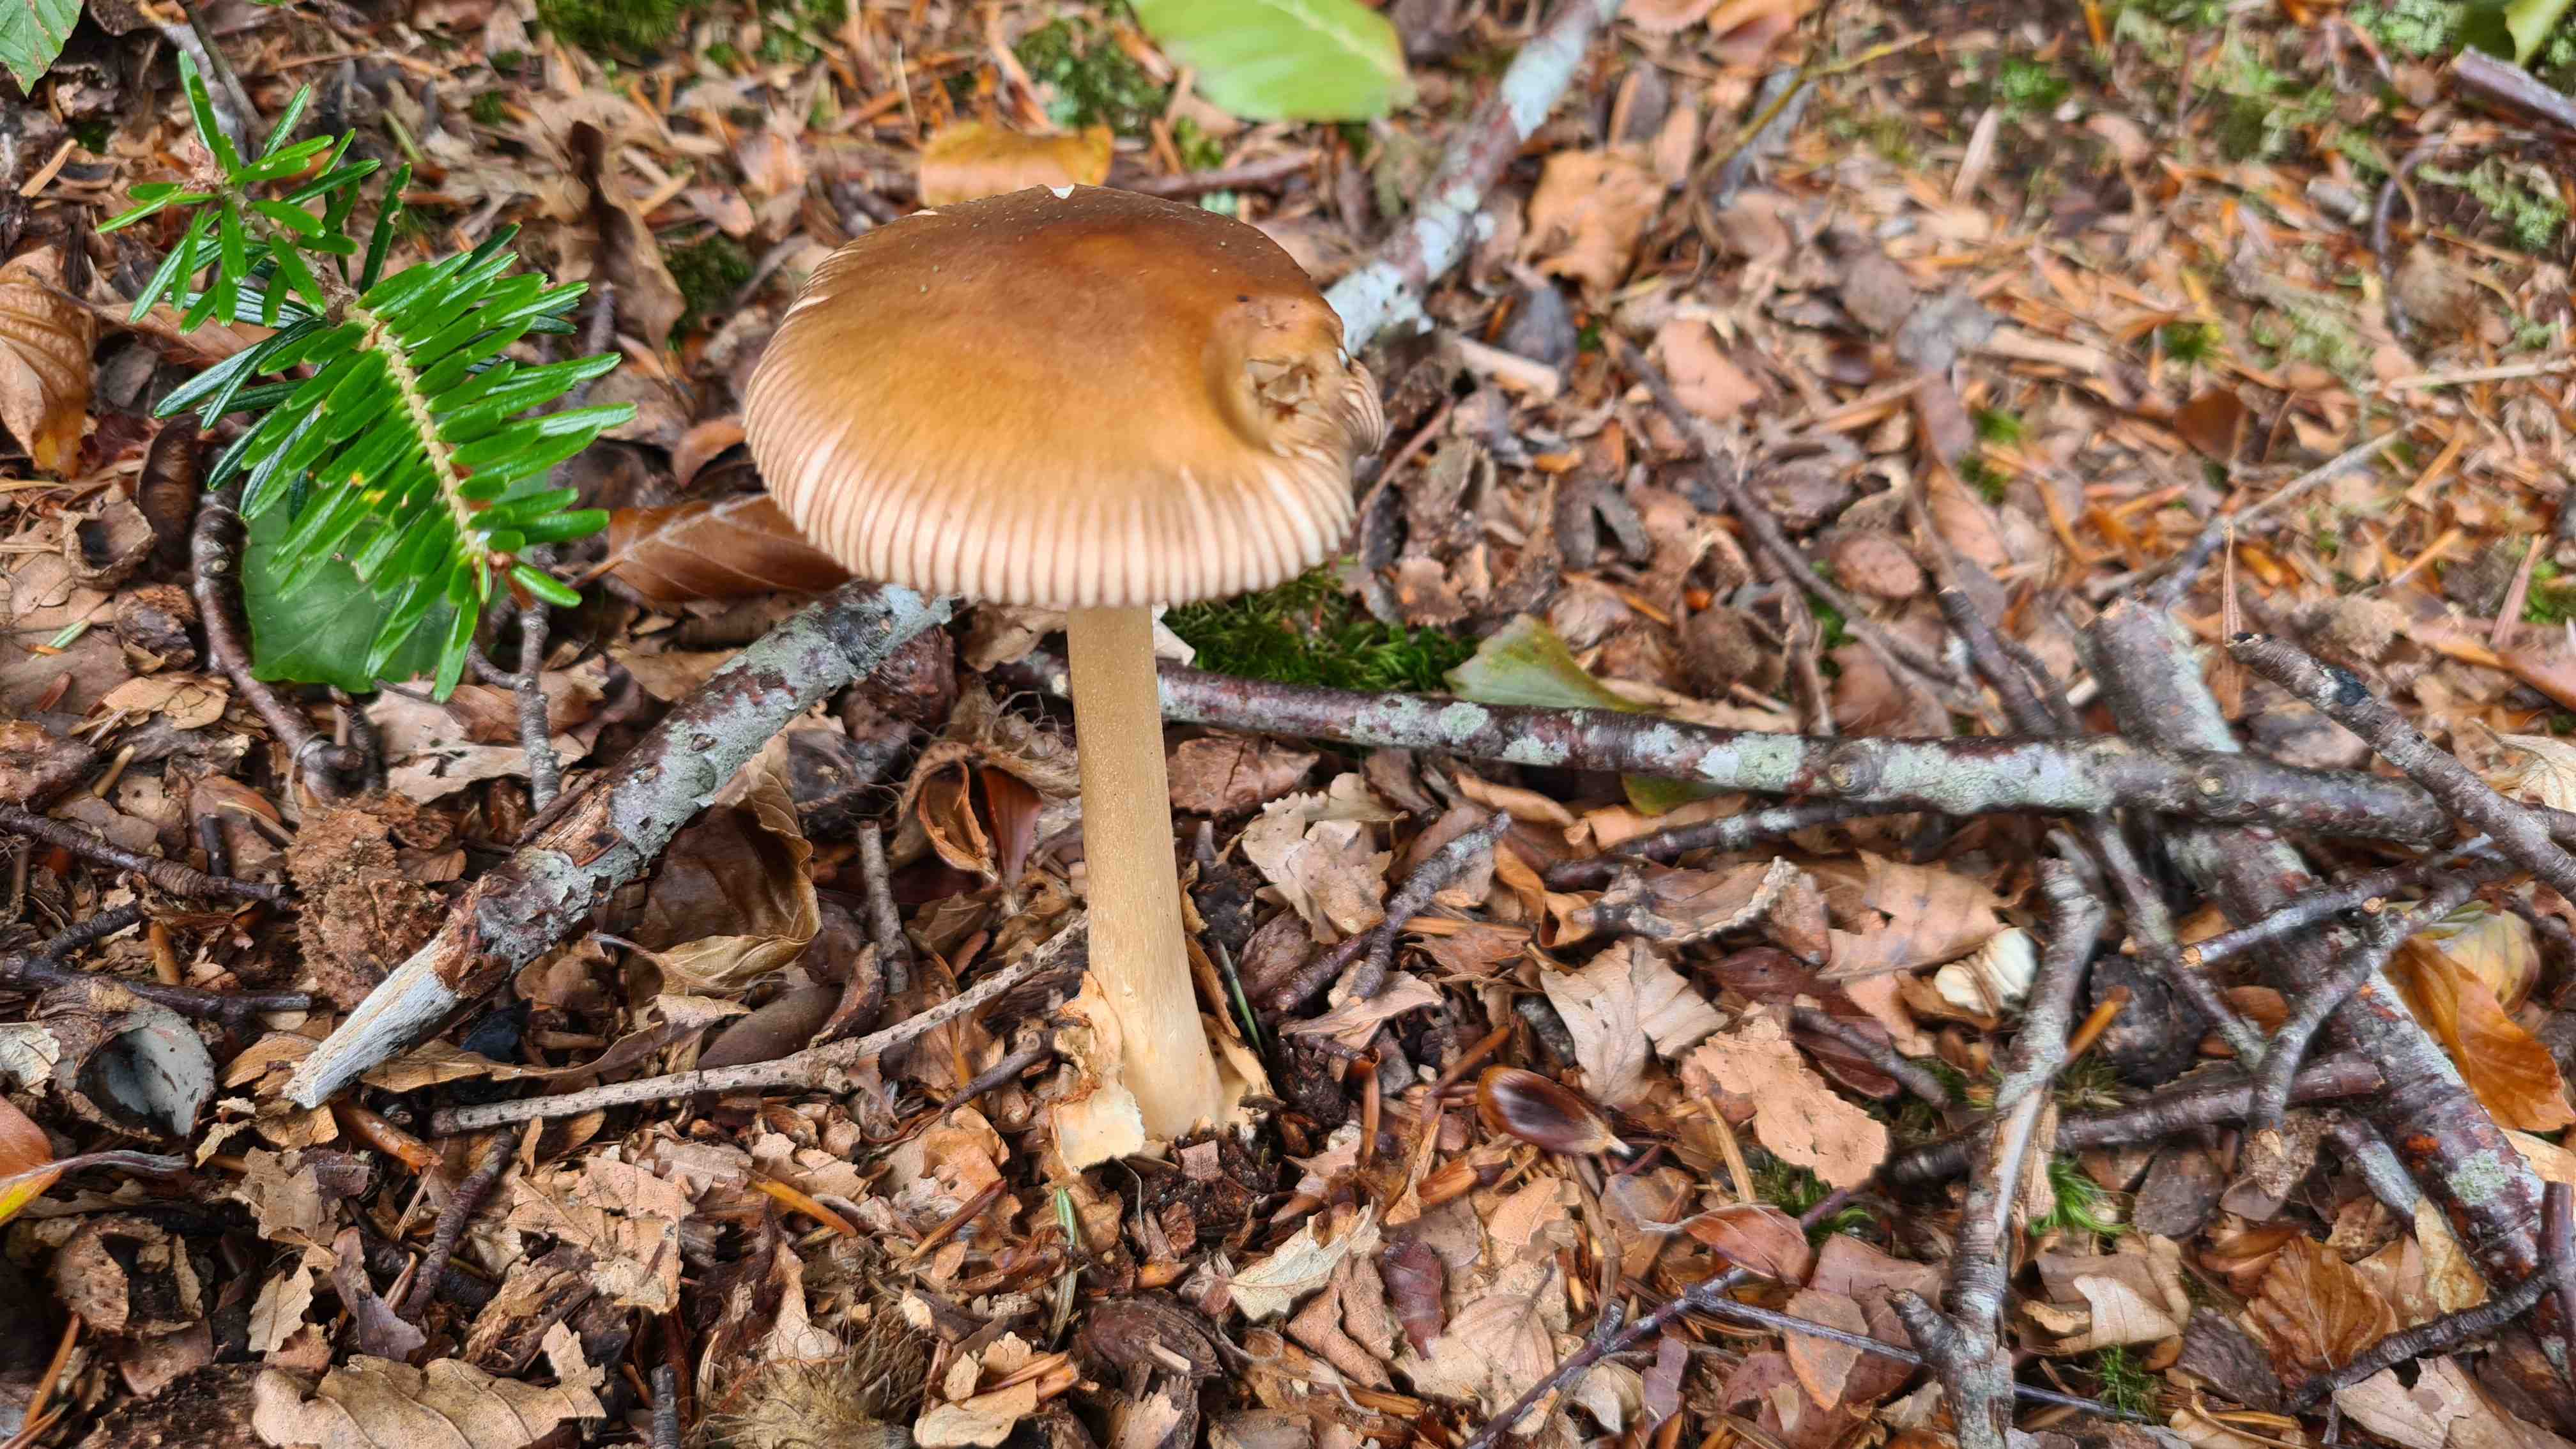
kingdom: Fungi
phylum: Basidiomycota
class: Agaricomycetes
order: Agaricales
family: Amanitaceae
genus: Amanita
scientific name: Amanita fulva
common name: brun kam-fluesvamp
